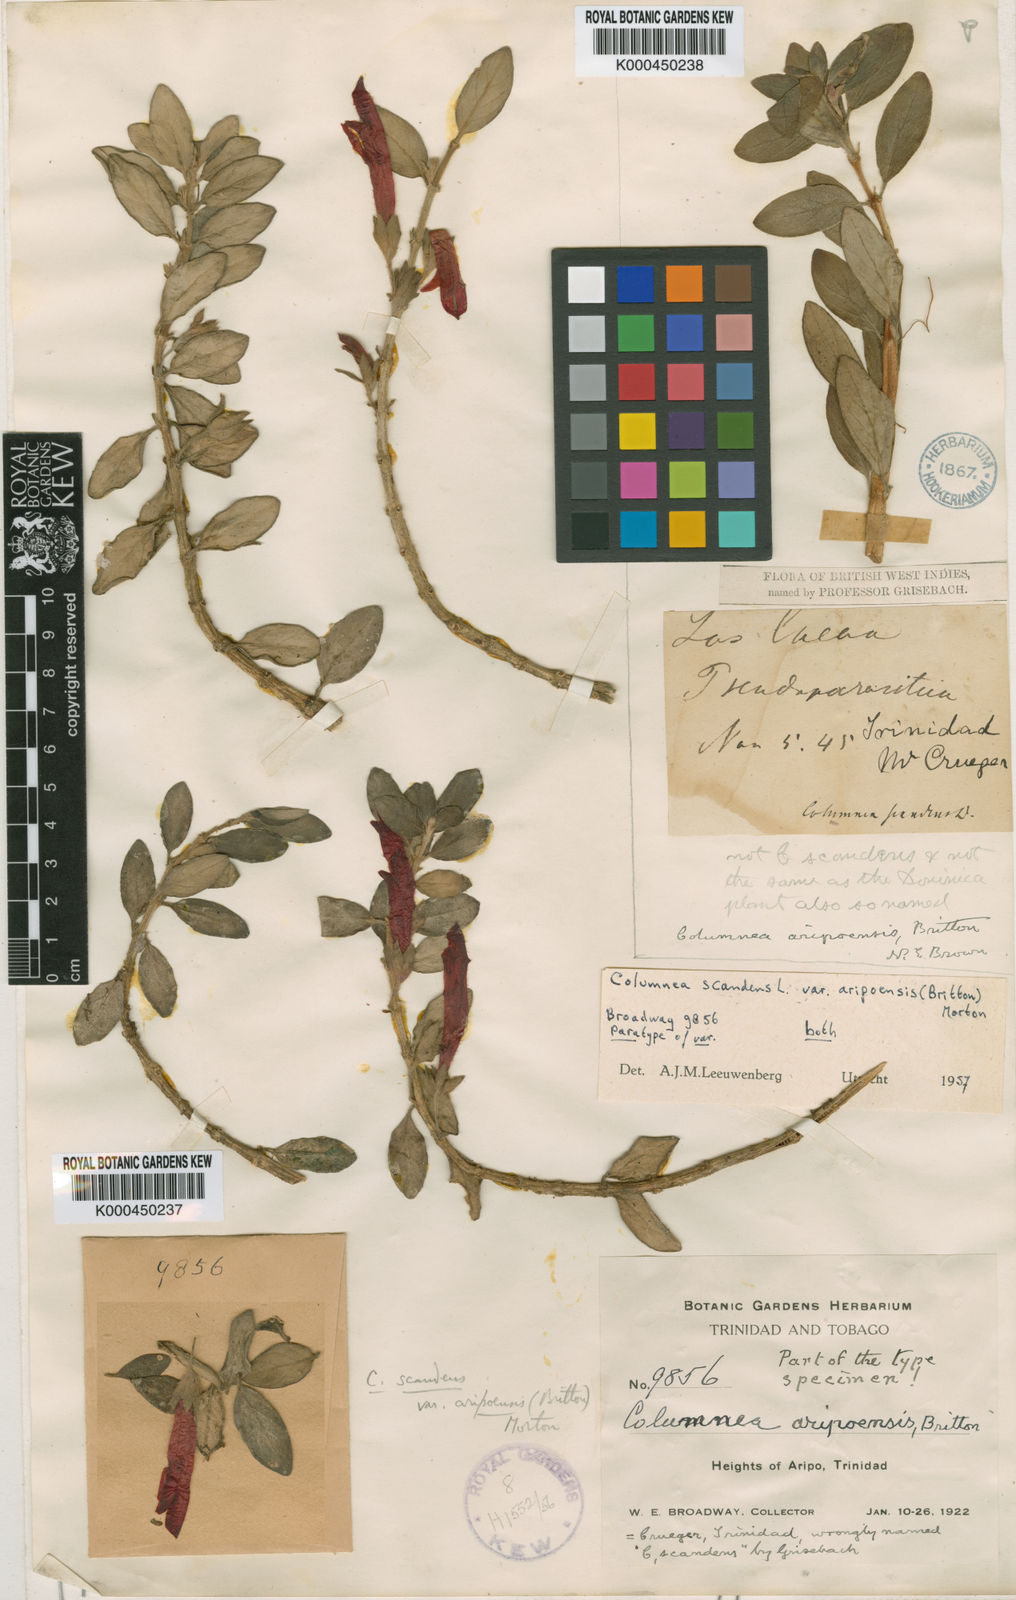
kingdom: Plantae
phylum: Tracheophyta
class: Magnoliopsida
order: Lamiales
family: Gesneriaceae
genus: Columnea
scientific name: Columnea scandens
